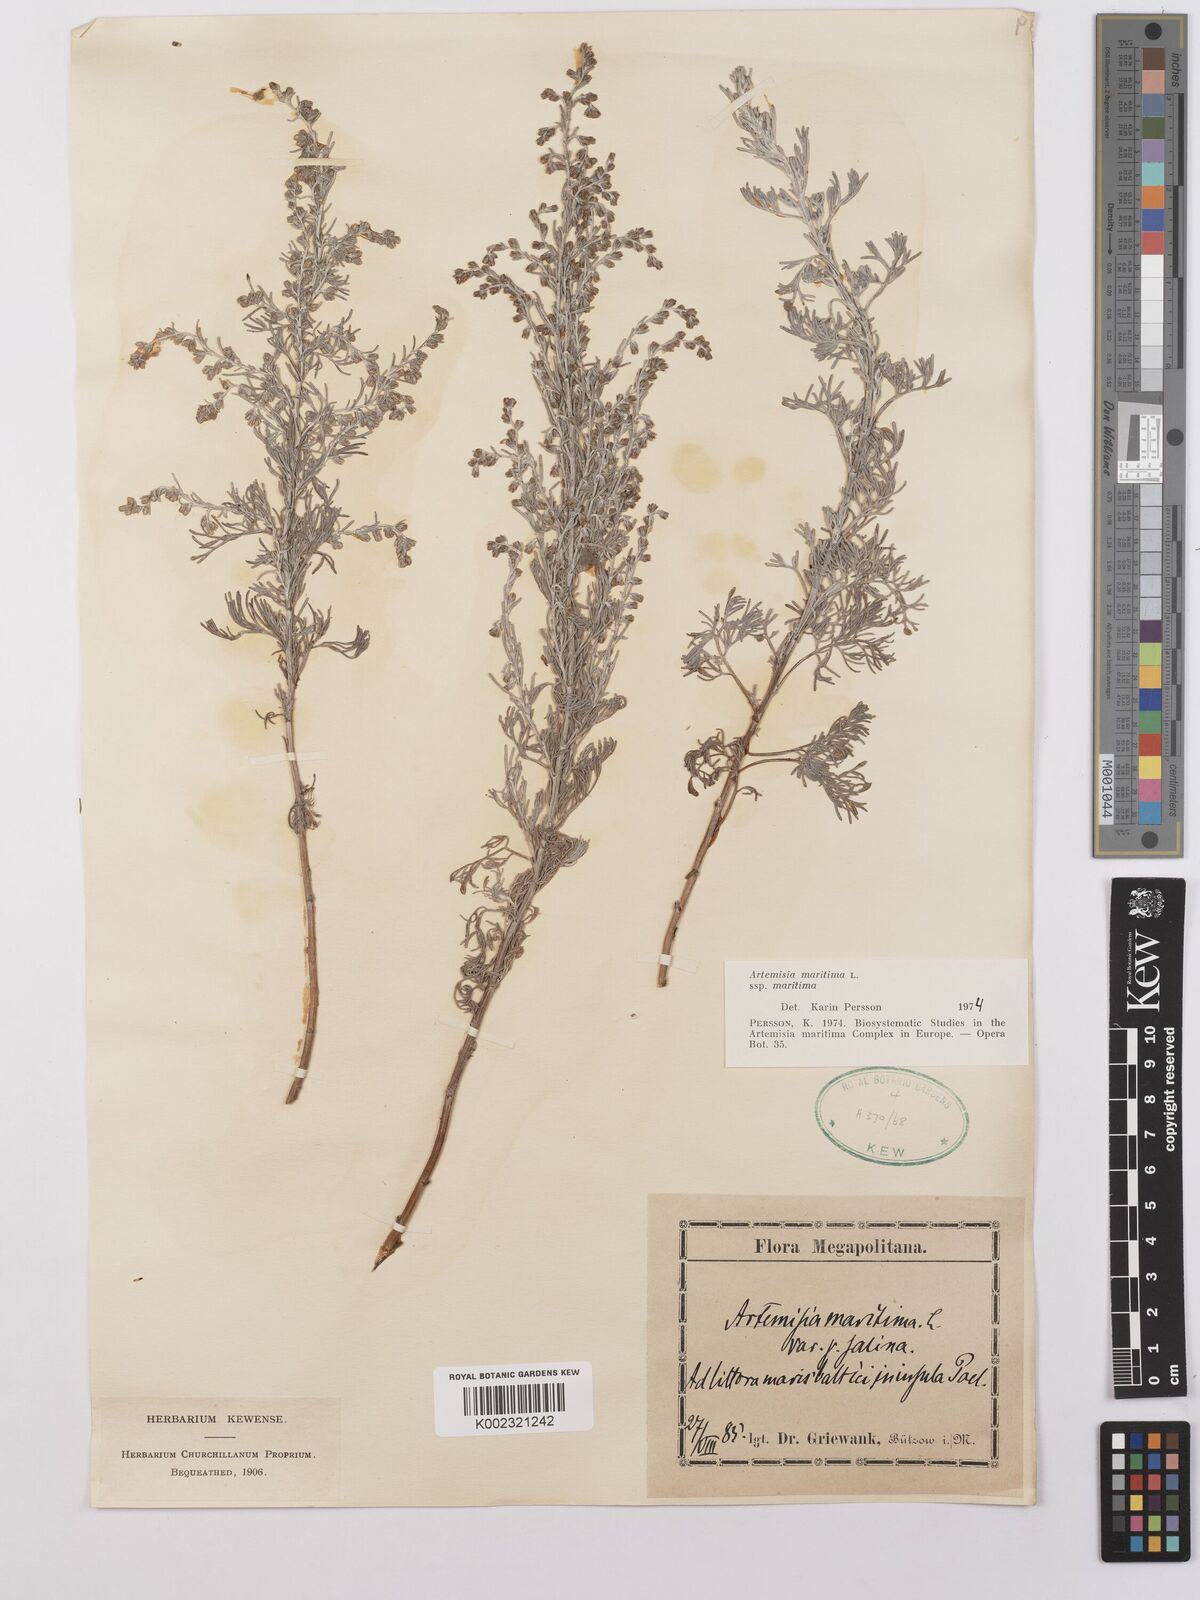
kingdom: Plantae
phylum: Tracheophyta
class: Magnoliopsida
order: Asterales
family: Asteraceae
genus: Artemisia
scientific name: Artemisia maritima
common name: Wormseed
